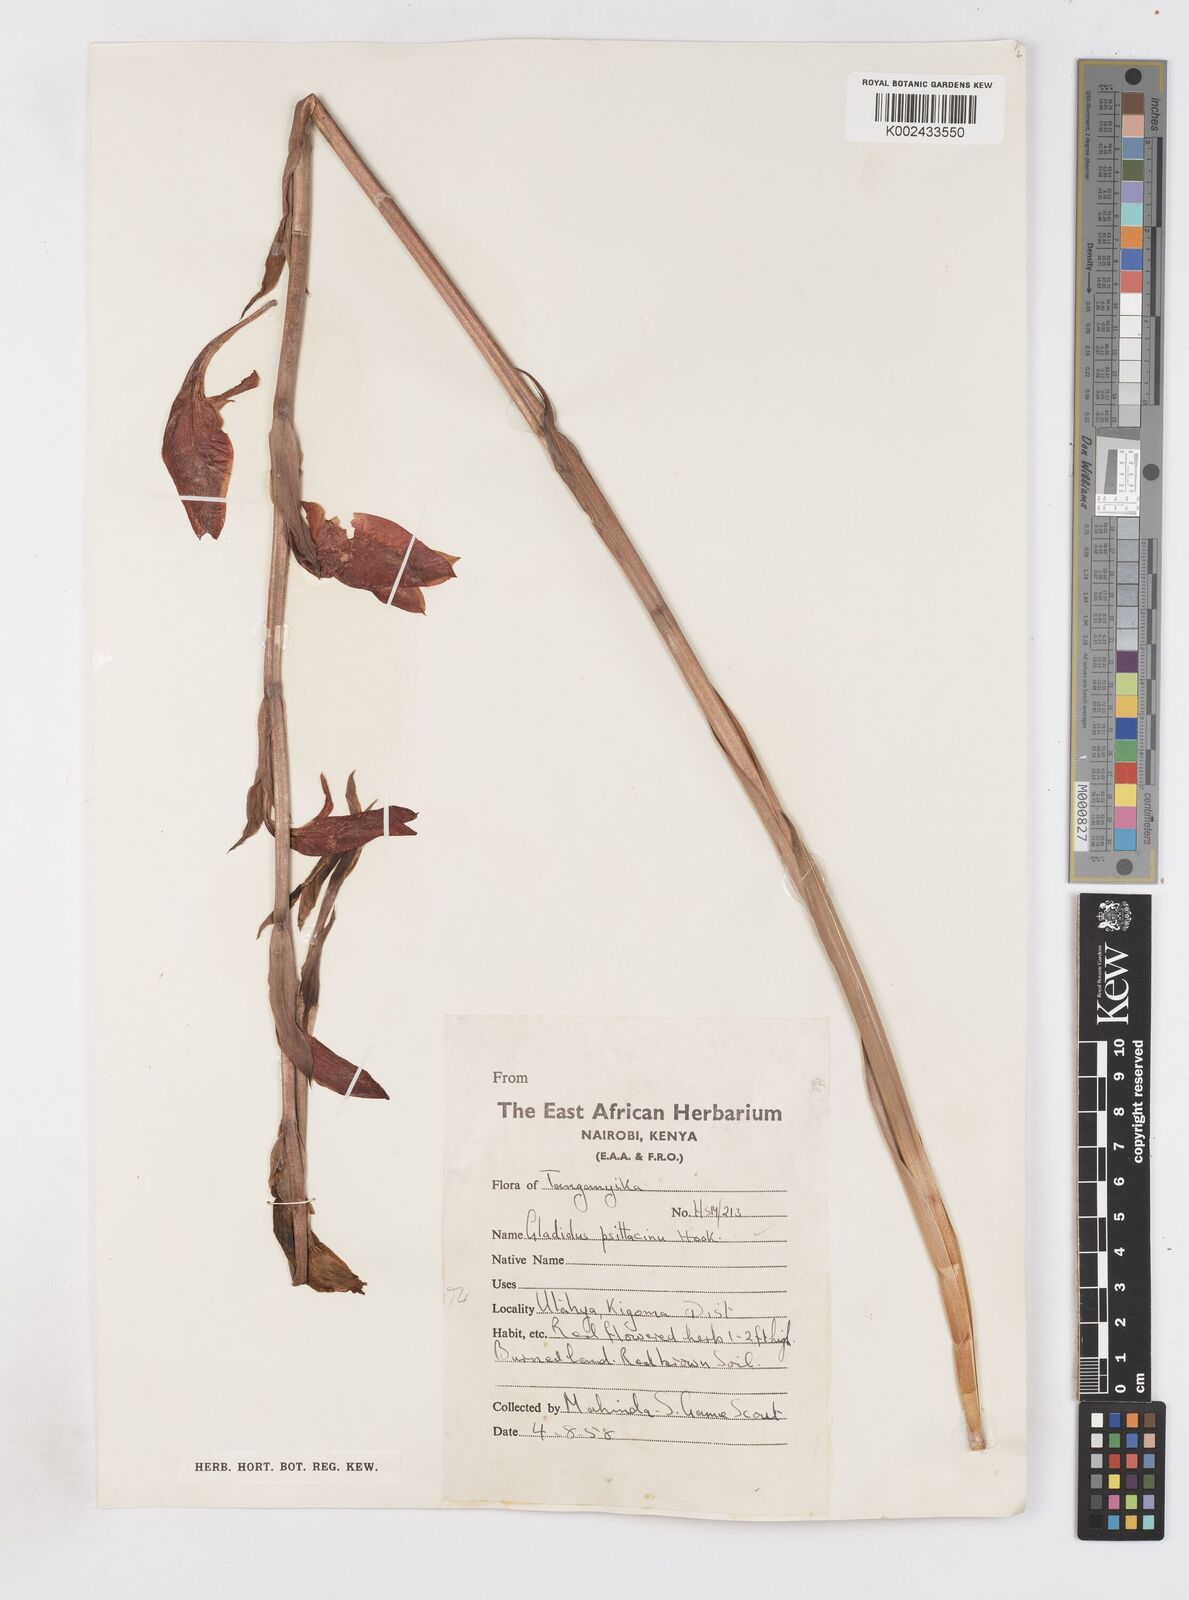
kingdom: Plantae
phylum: Tracheophyta
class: Liliopsida
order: Asparagales
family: Iridaceae
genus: Gladiolus
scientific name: Gladiolus dalenii
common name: Cornflag
